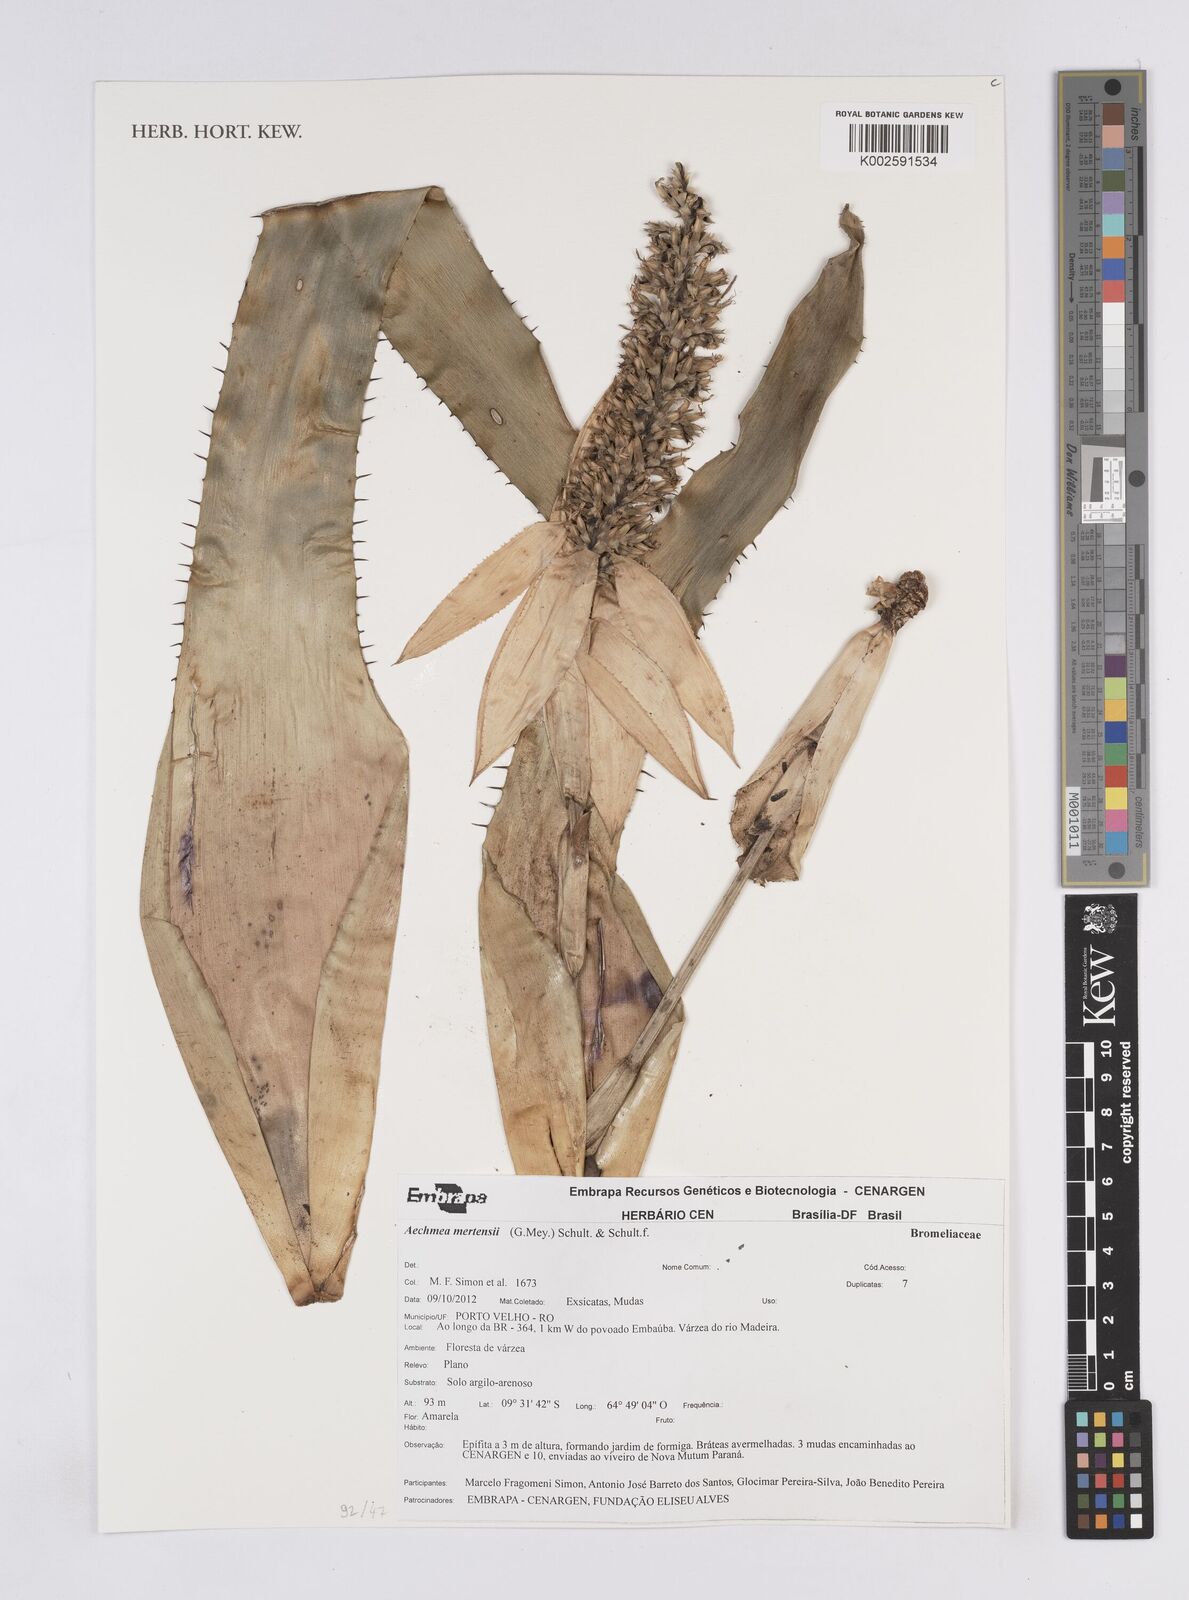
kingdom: Plantae
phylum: Tracheophyta
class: Liliopsida
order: Poales
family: Bromeliaceae
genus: Aechmea
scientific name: Aechmea mertensii
